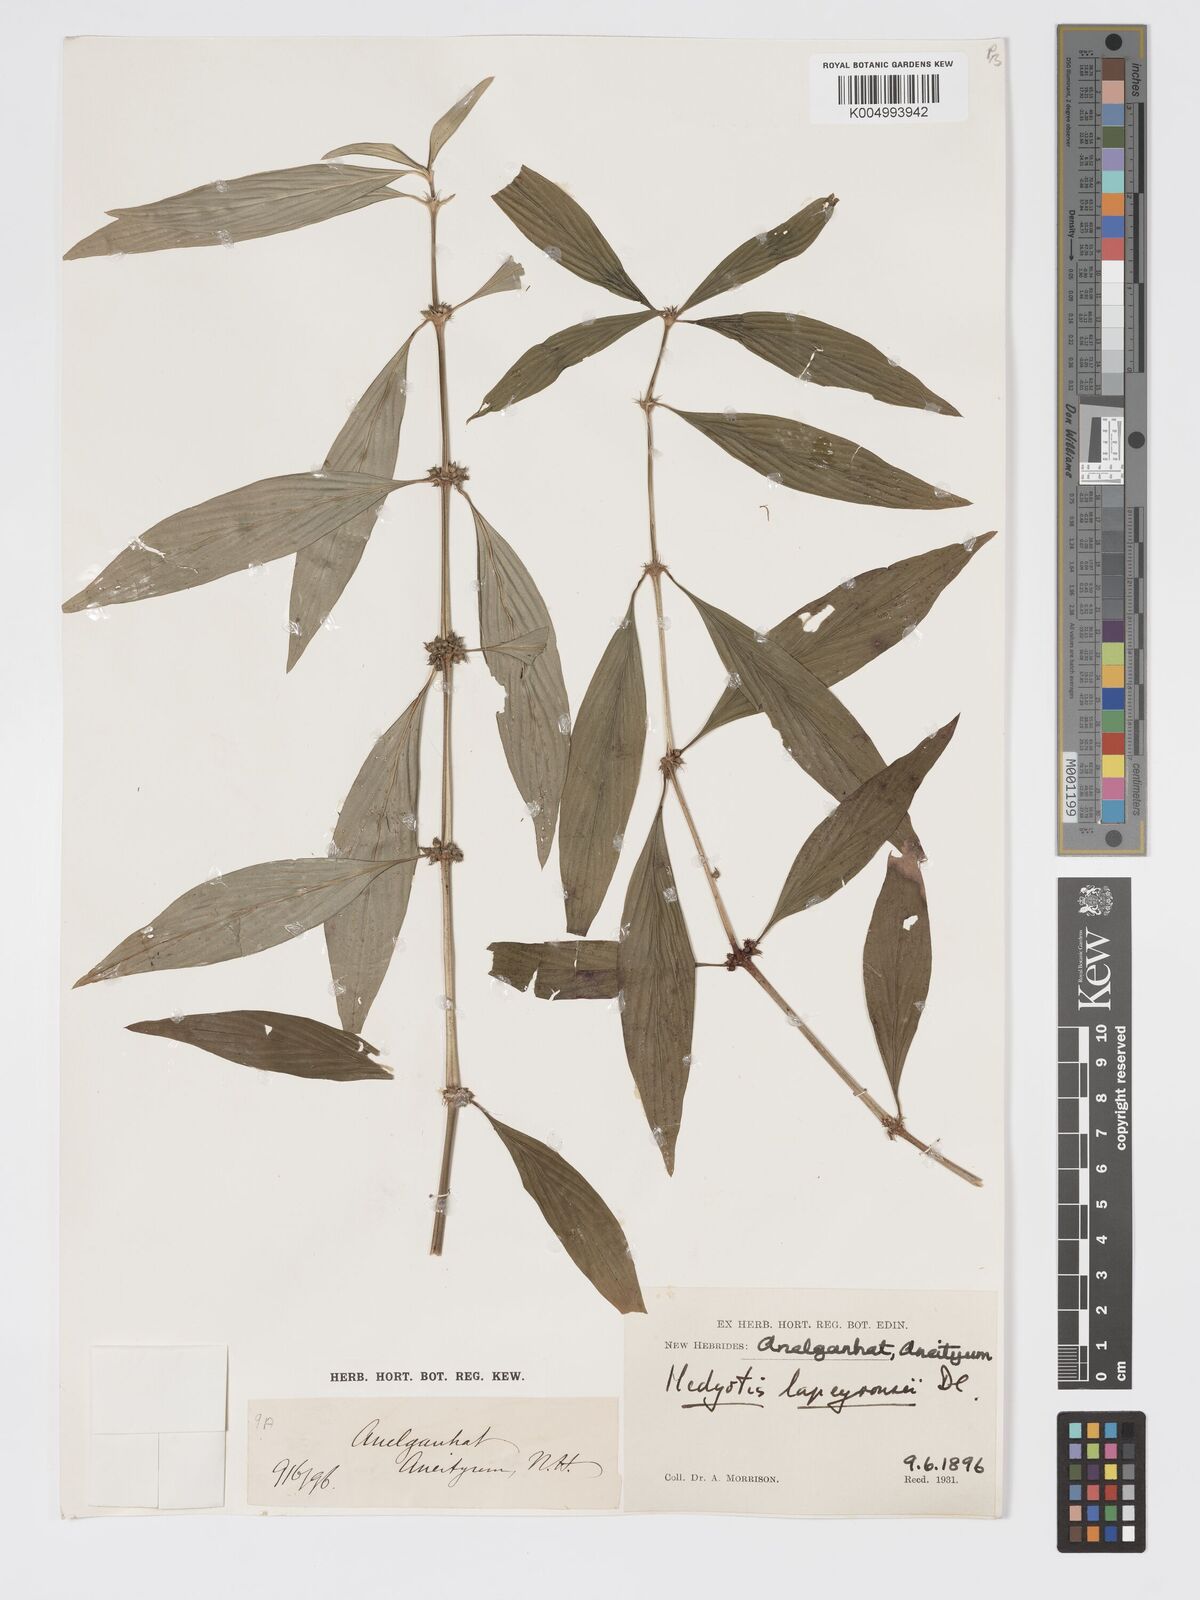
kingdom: Plantae
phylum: Tracheophyta
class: Magnoliopsida
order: Gentianales
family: Rubiaceae
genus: Exallage
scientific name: Exallage lapeyrousei
